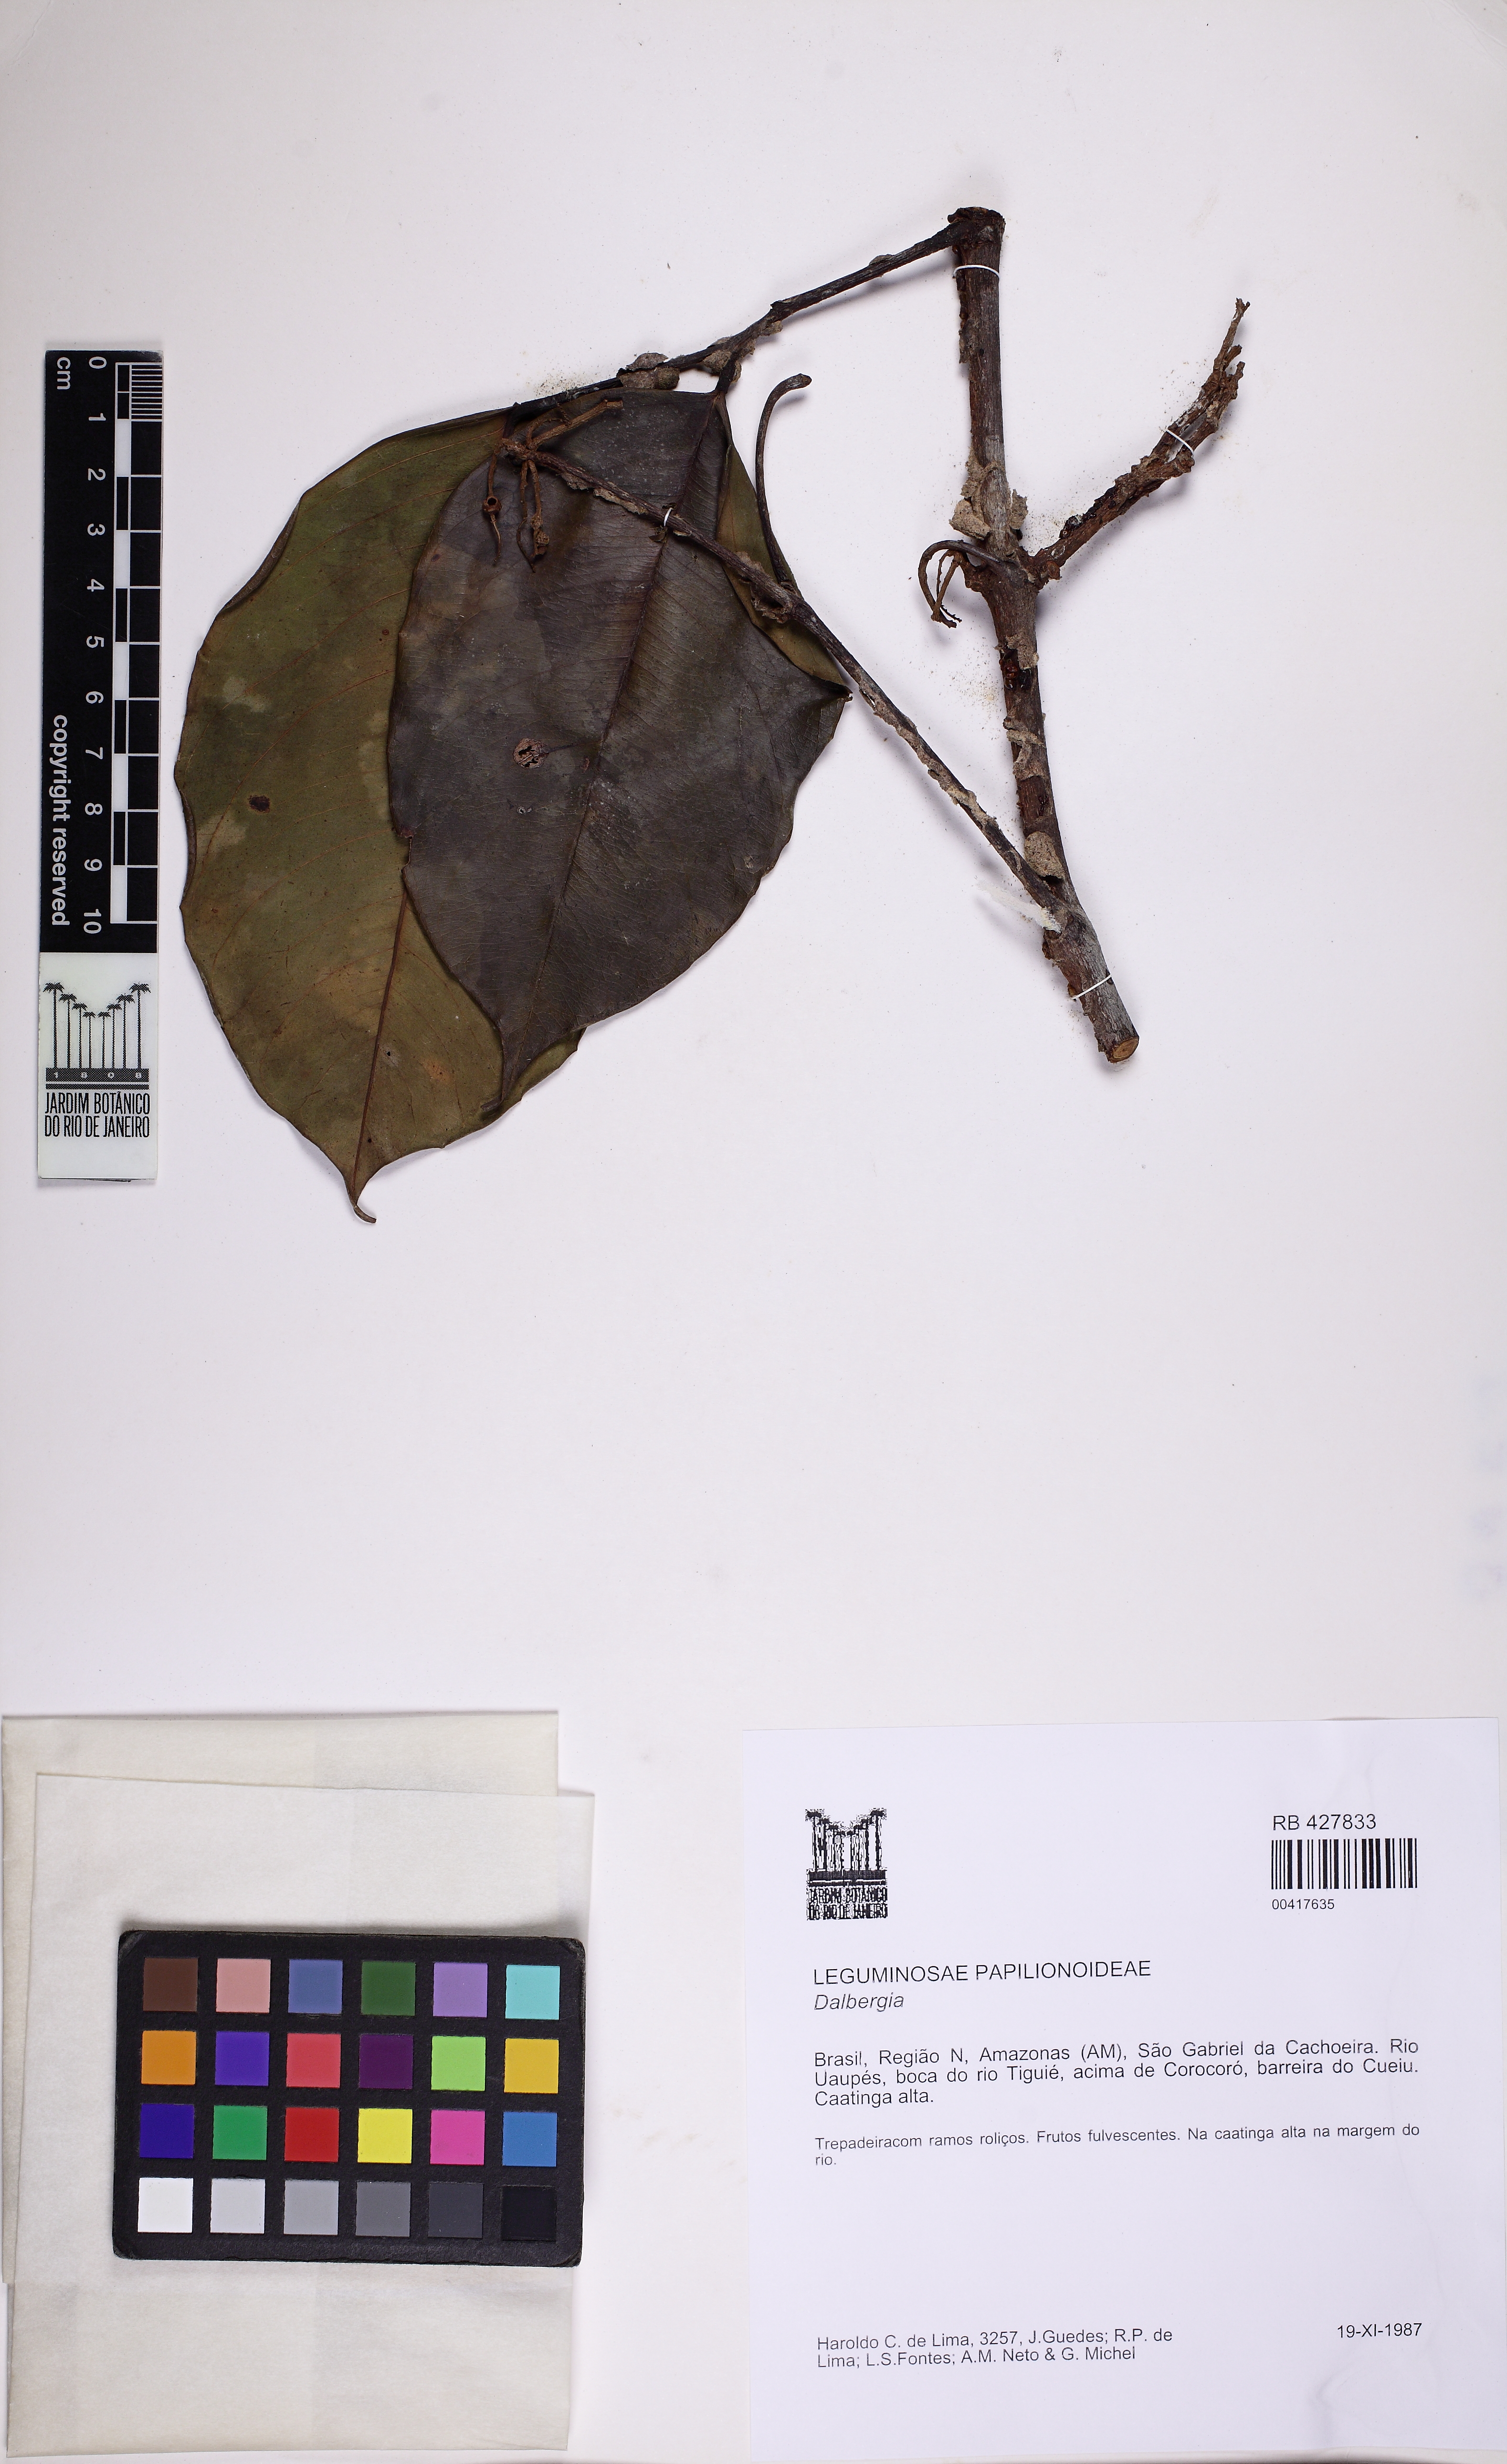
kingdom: Plantae
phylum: Tracheophyta
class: Magnoliopsida
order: Fabales
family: Fabaceae
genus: Dalbergia
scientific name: Dalbergia
